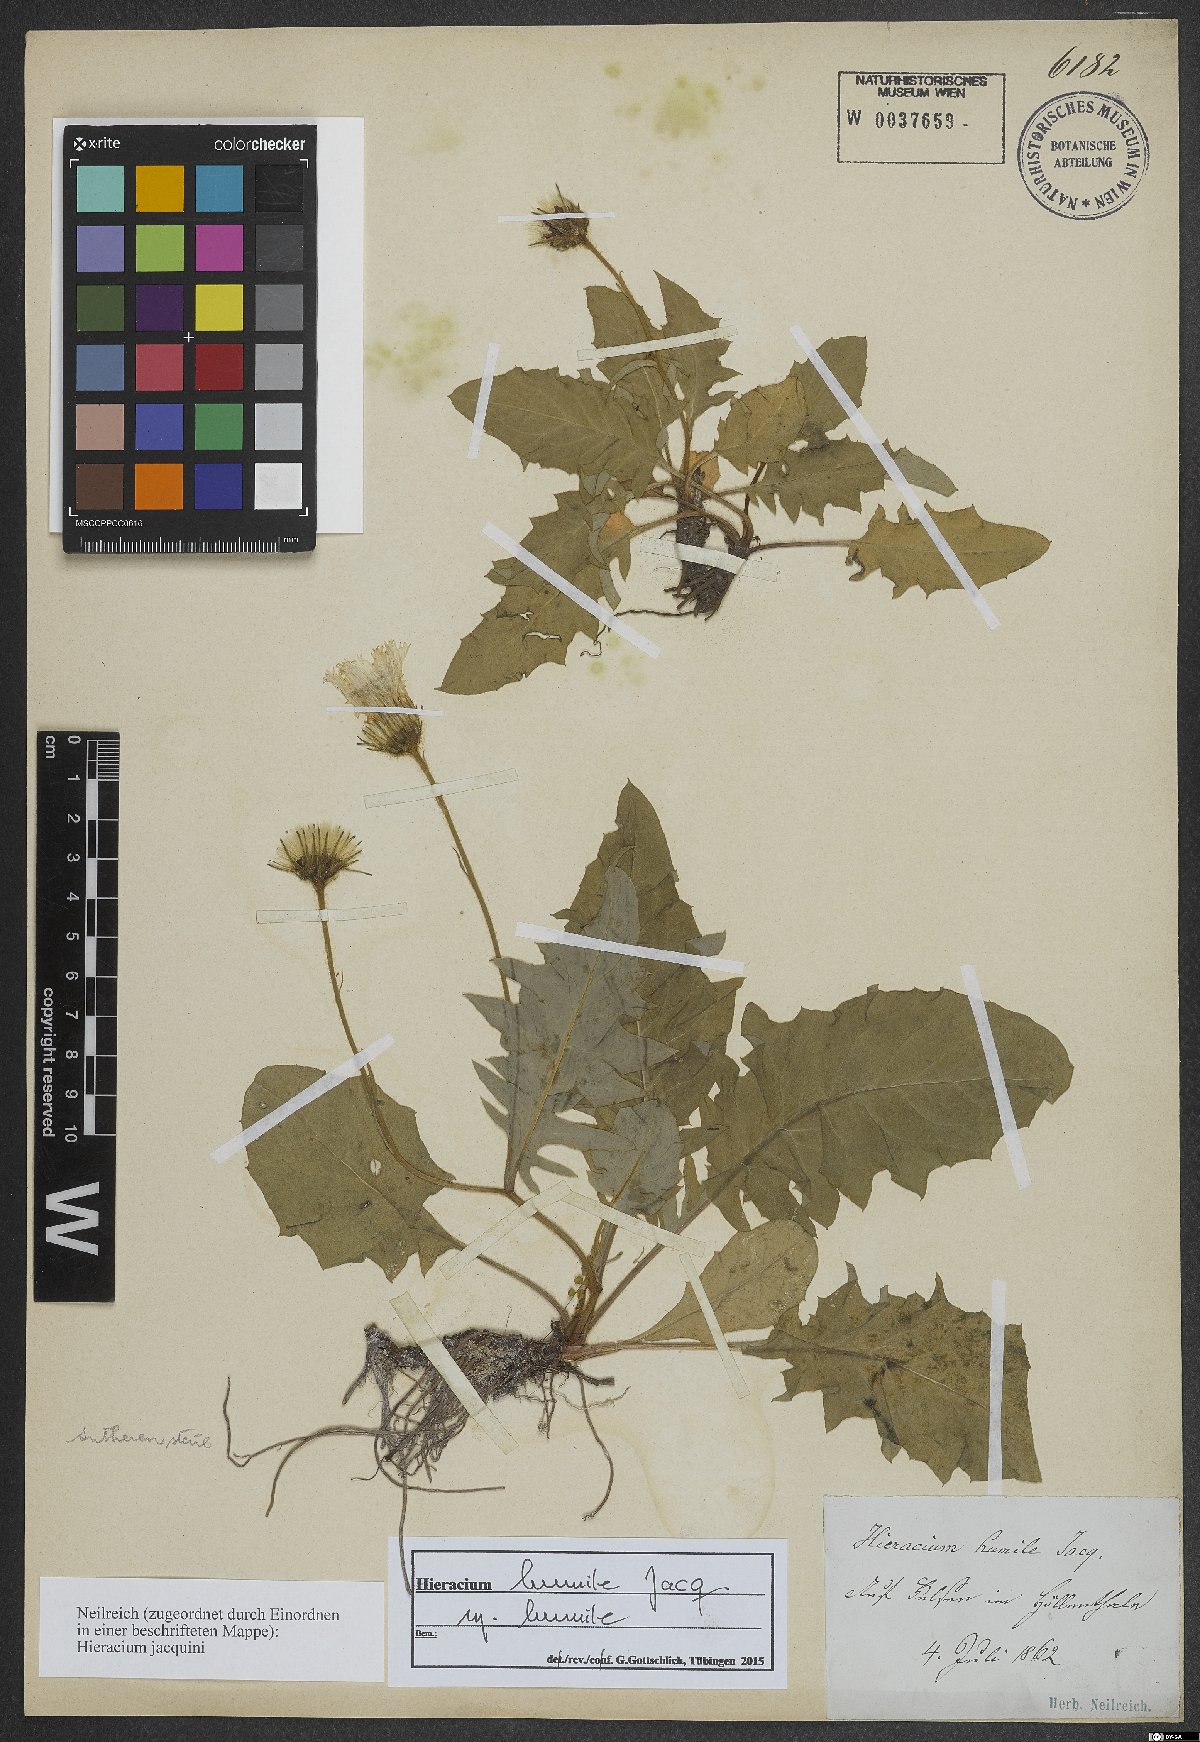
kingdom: Plantae
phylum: Tracheophyta
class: Magnoliopsida
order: Asterales
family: Asteraceae
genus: Hieracium
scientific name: Hieracium humile
